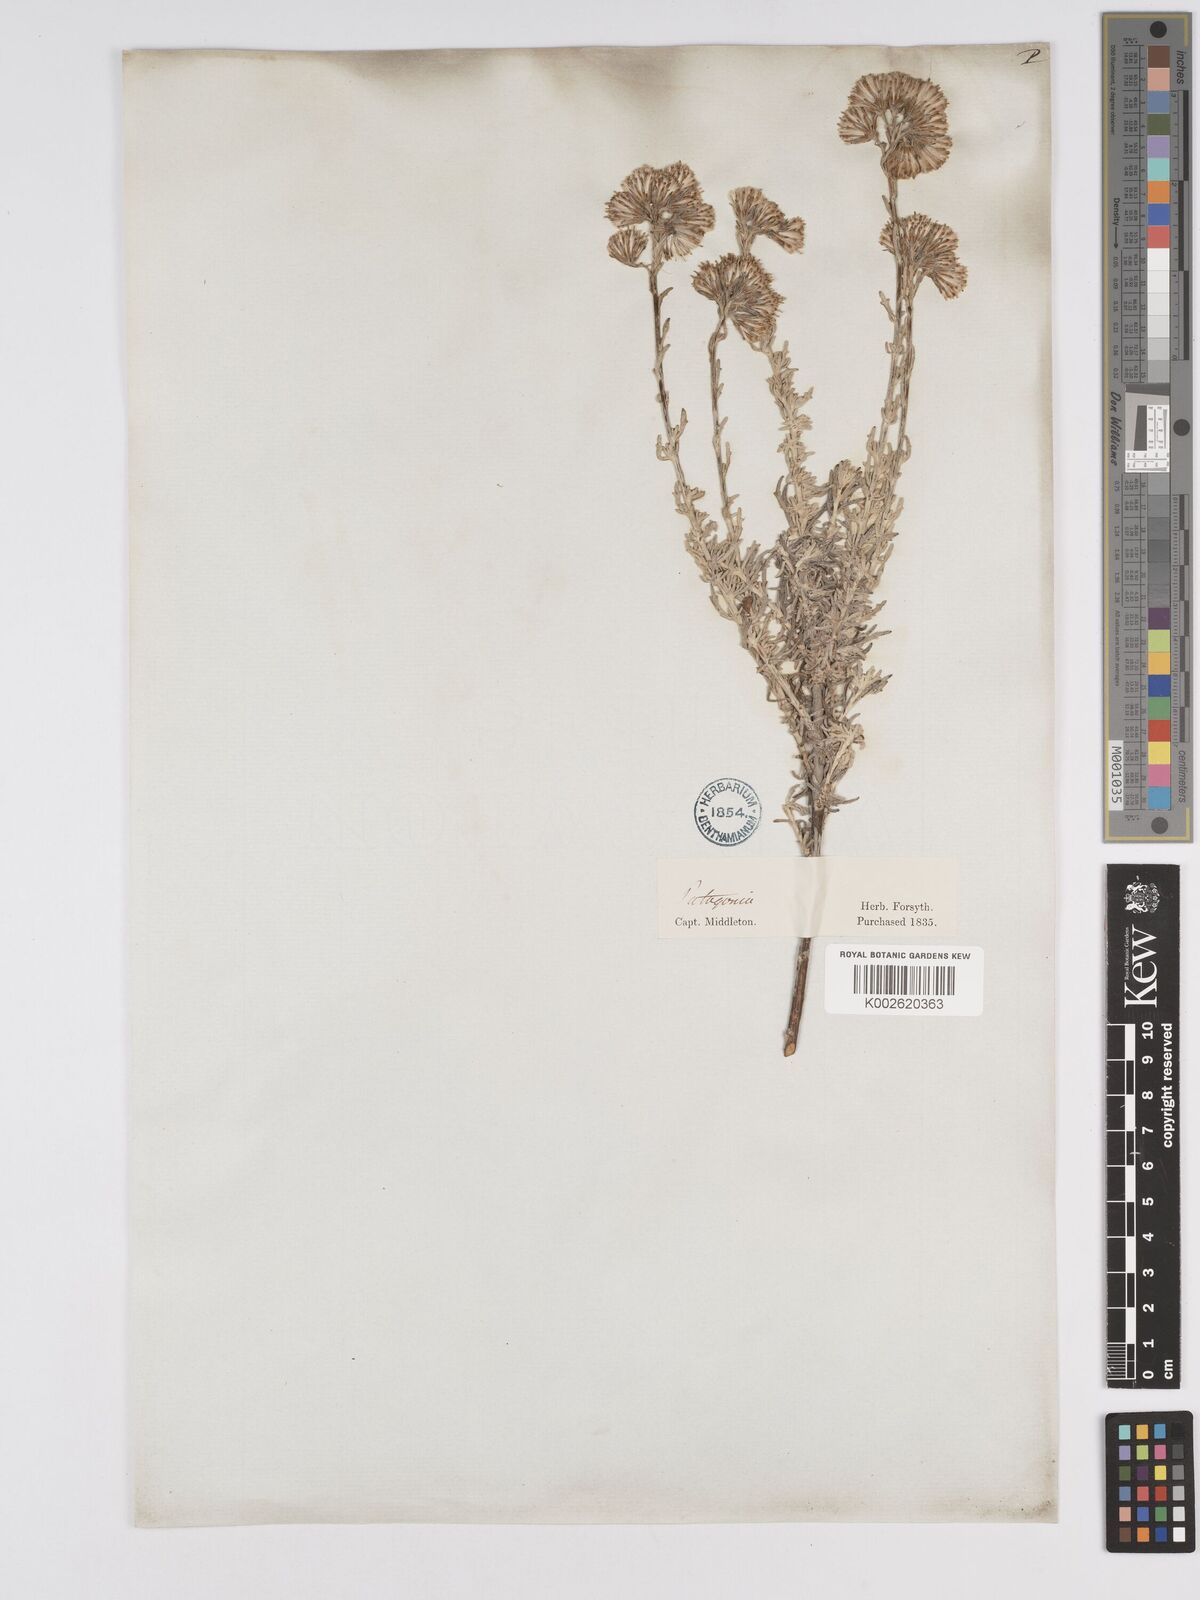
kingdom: Plantae
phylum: Tracheophyta
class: Magnoliopsida
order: Asterales
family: Asteraceae
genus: Senecio
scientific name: Senecio patagonicus
